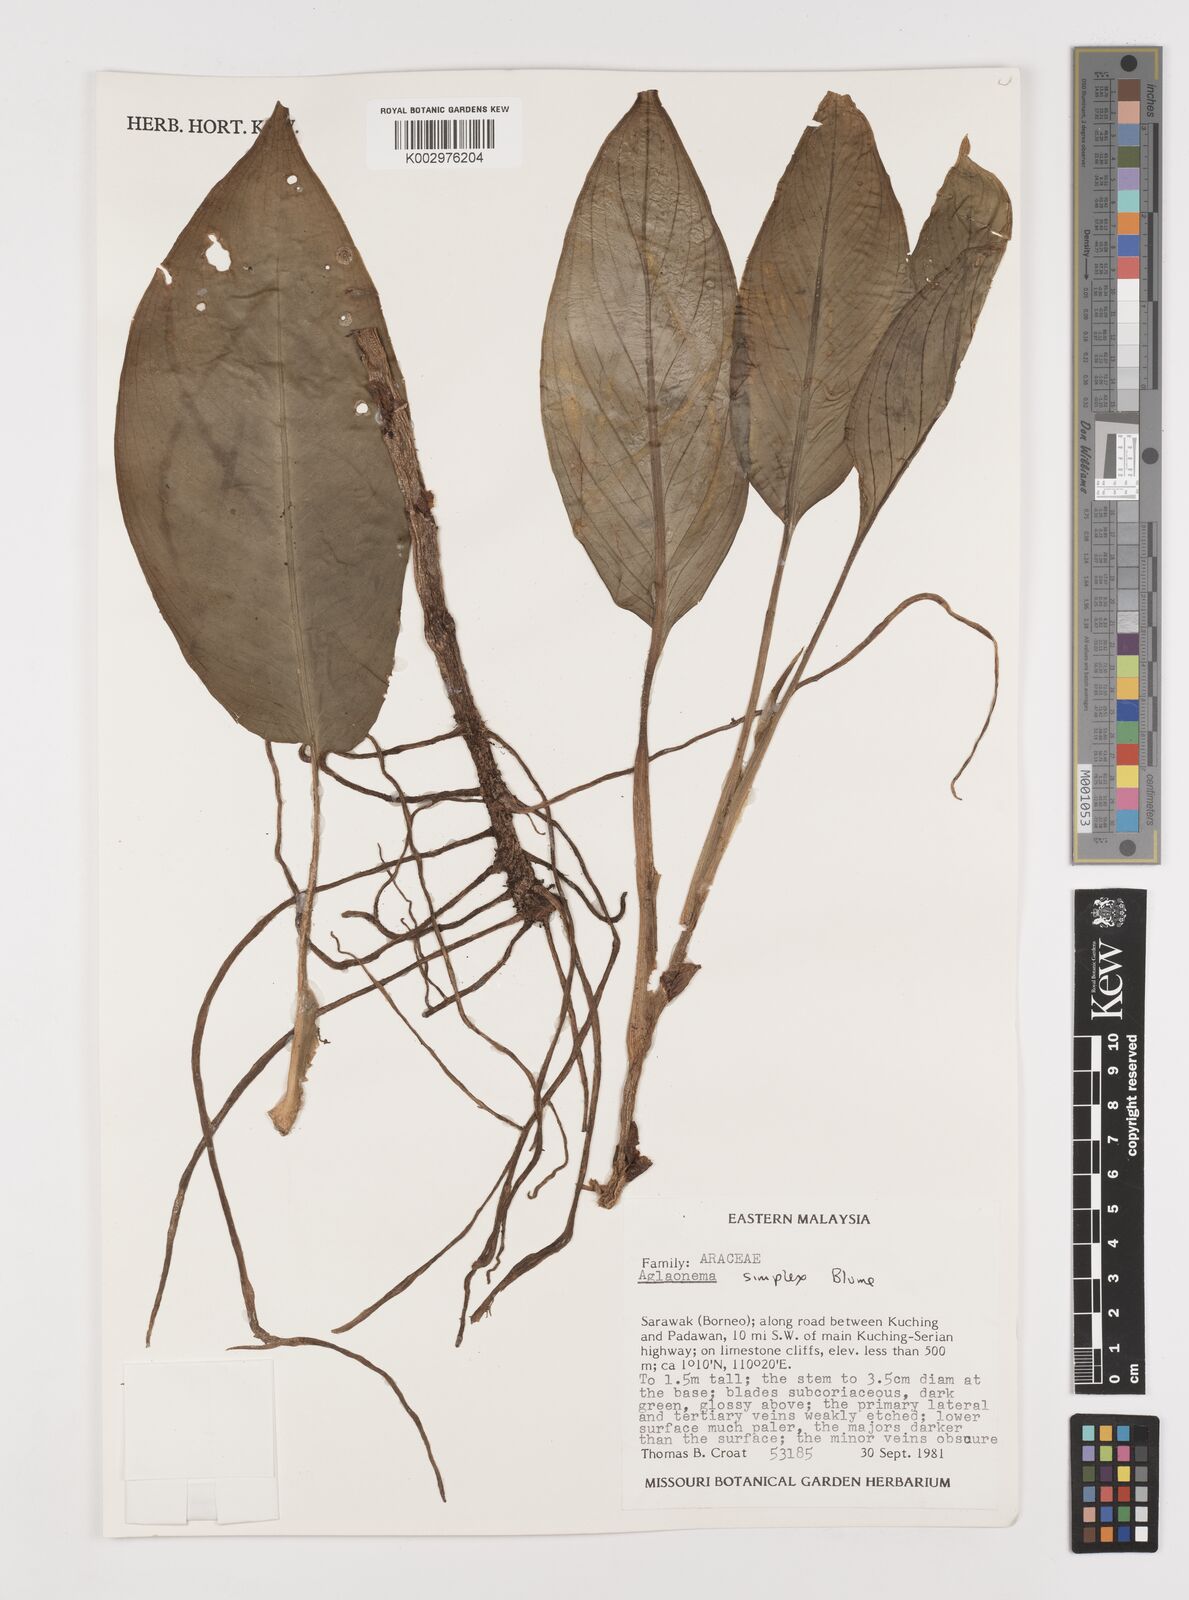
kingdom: Plantae
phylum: Tracheophyta
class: Liliopsida
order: Alismatales
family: Araceae
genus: Aglaonema
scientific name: Aglaonema simplex
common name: Malayan-sword
